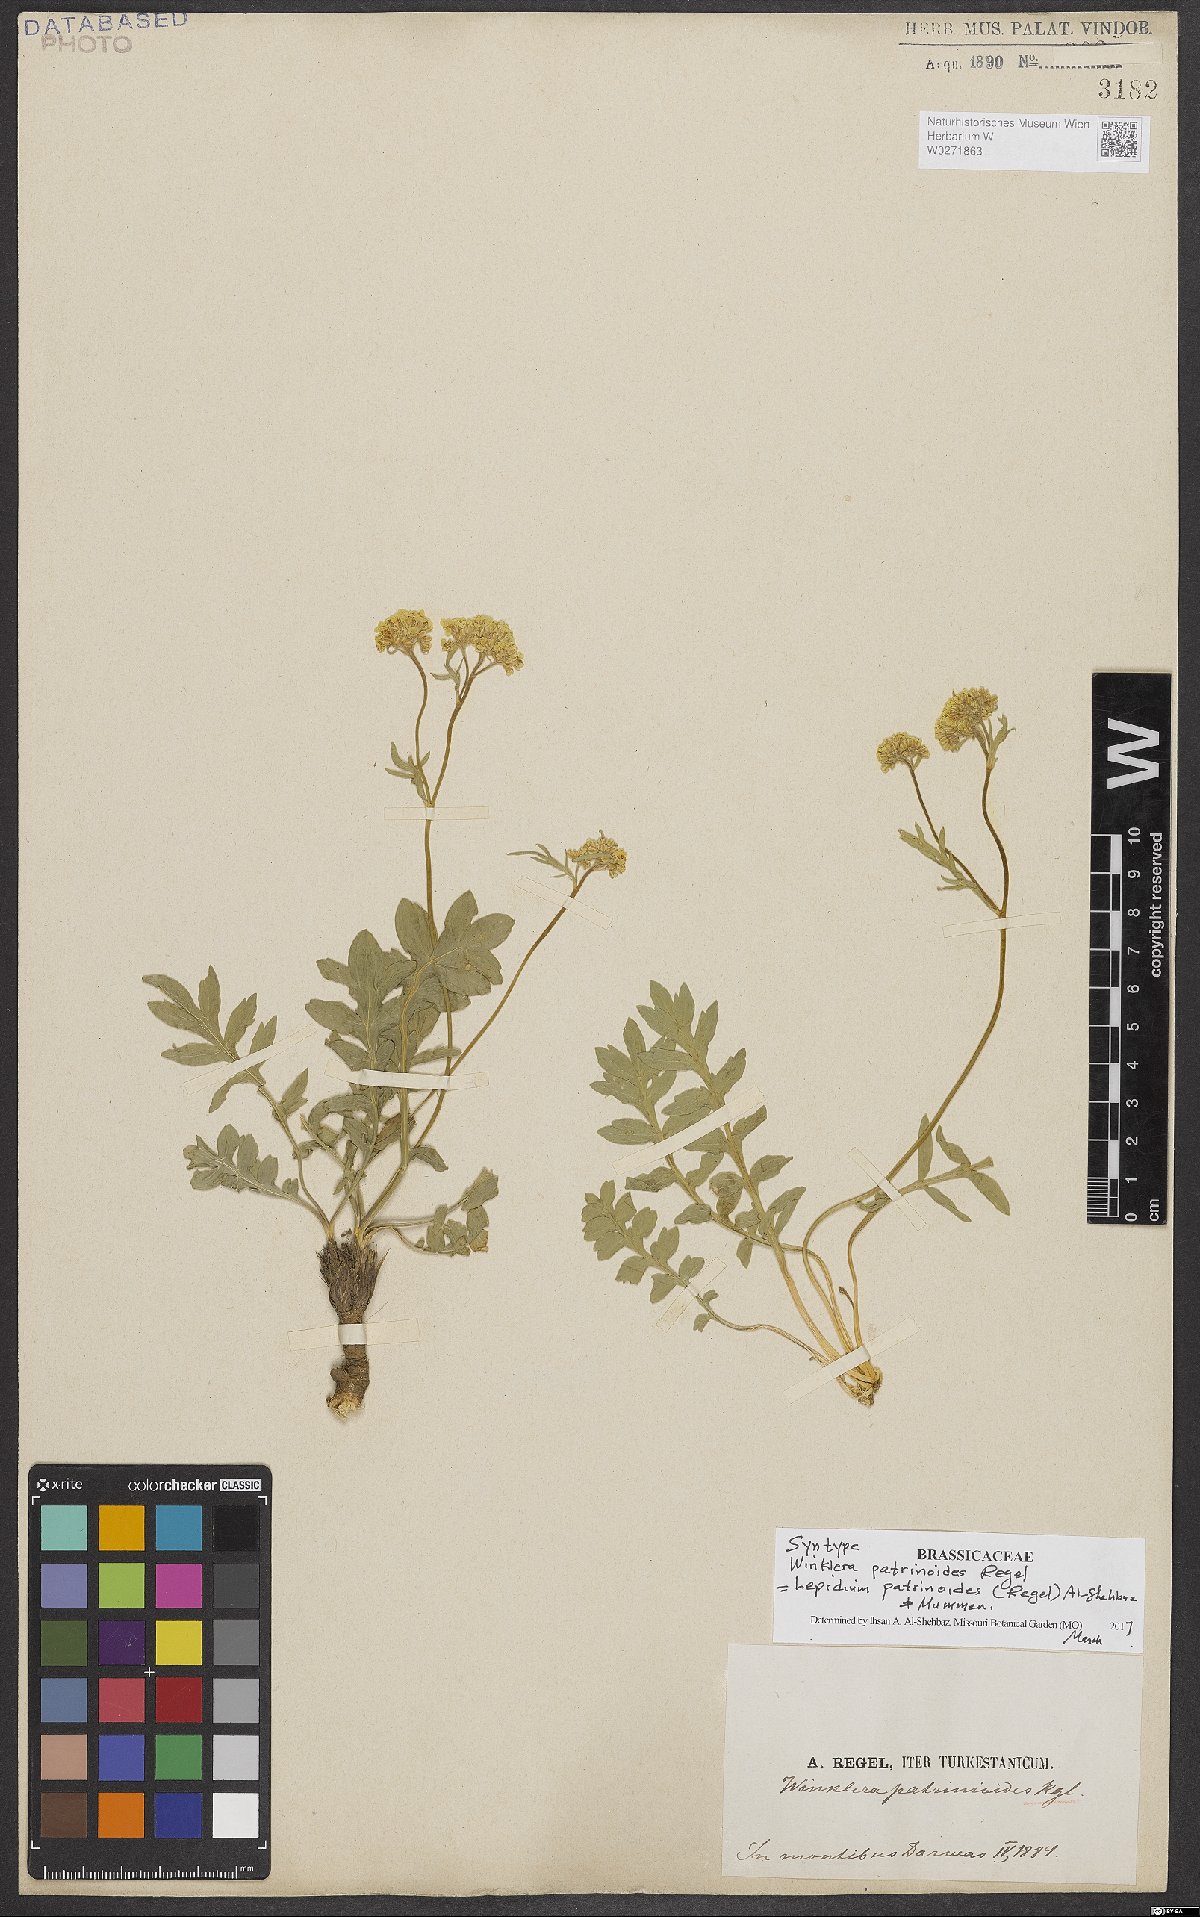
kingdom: Plantae
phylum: Tracheophyta
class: Magnoliopsida
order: Brassicales
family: Brassicaceae
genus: Lepidium
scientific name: Lepidium patrinoides
